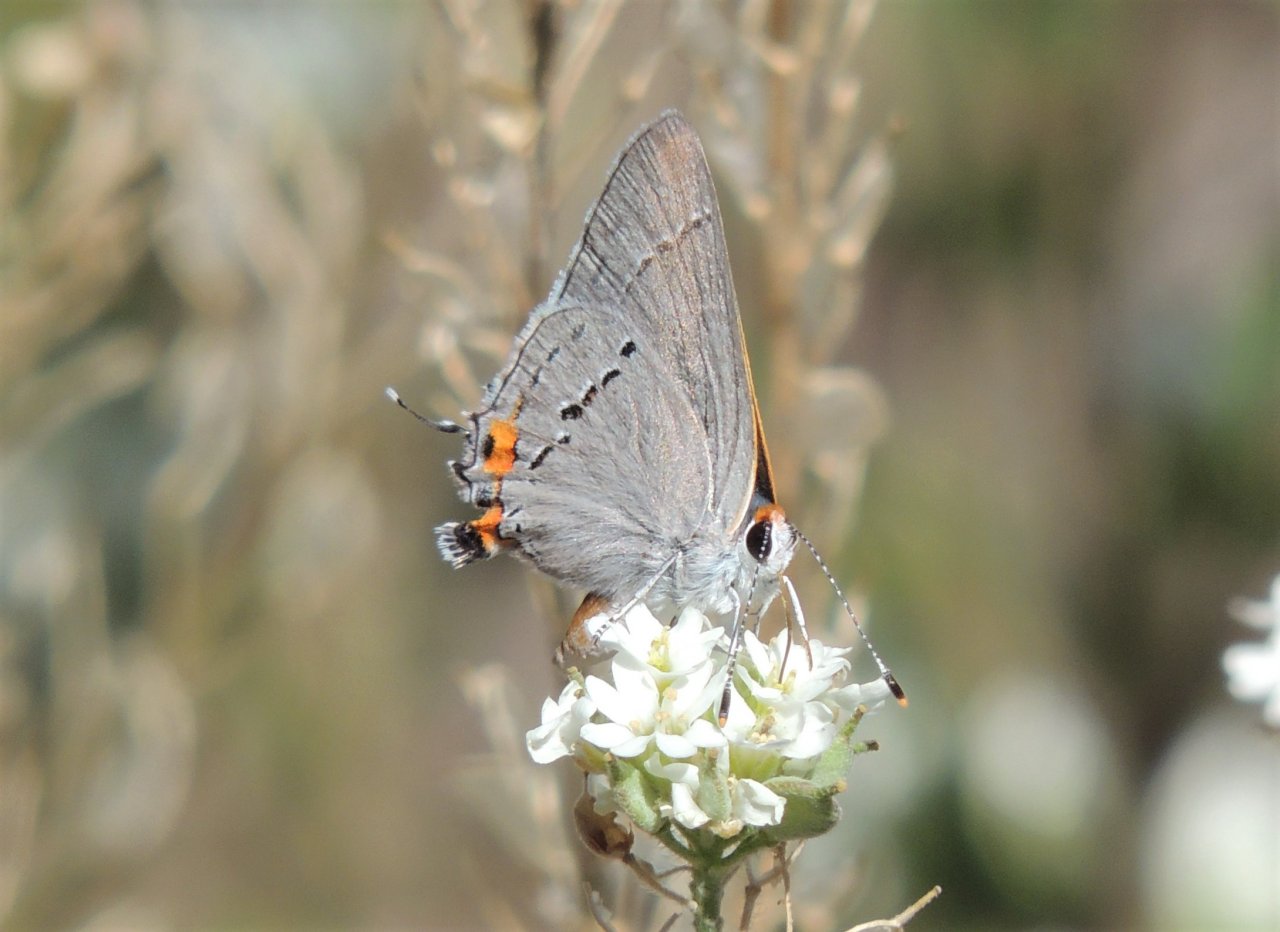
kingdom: Animalia
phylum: Arthropoda
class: Insecta
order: Lepidoptera
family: Lycaenidae
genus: Strymon
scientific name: Strymon melinus
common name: Gray Hairstreak
